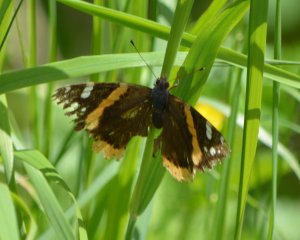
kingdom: Animalia
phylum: Arthropoda
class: Insecta
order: Lepidoptera
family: Nymphalidae
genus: Vanessa
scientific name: Vanessa atalanta
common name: Red Admiral
